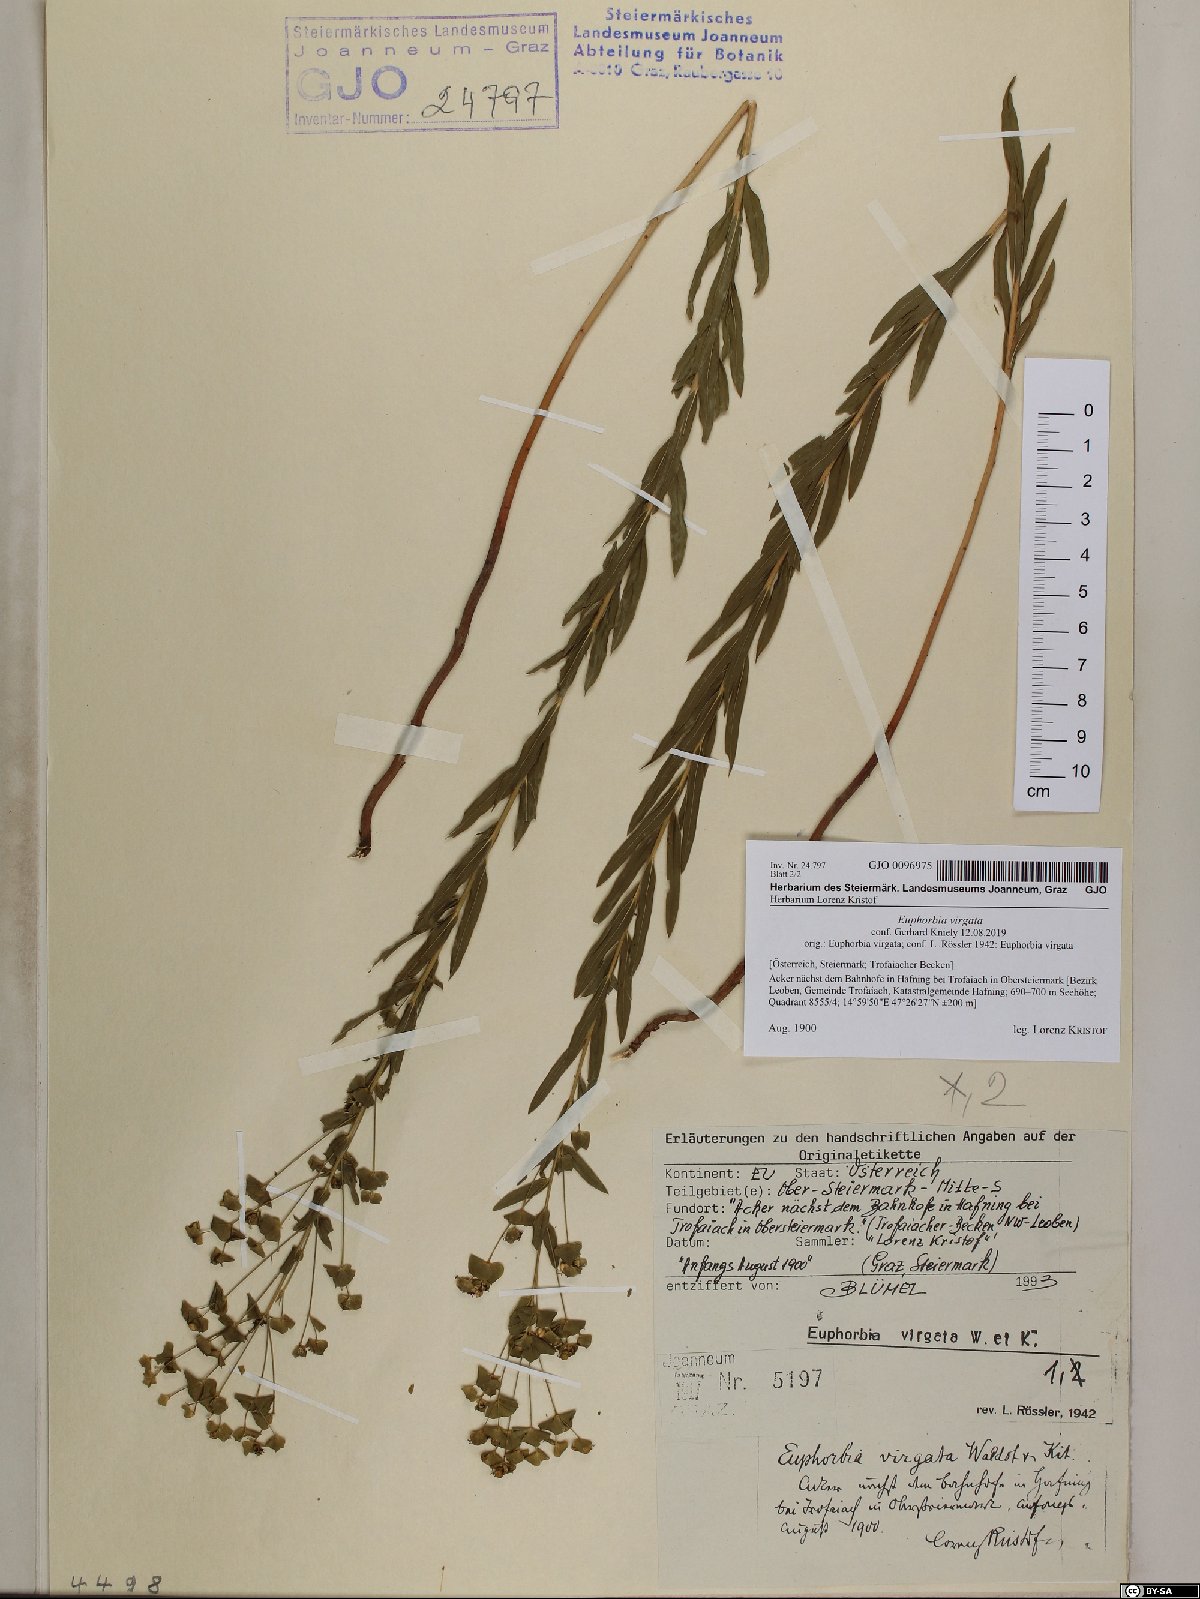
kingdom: Plantae
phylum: Tracheophyta
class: Magnoliopsida
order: Malpighiales
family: Euphorbiaceae
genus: Euphorbia
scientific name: Euphorbia virgata
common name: Leafy spurge
